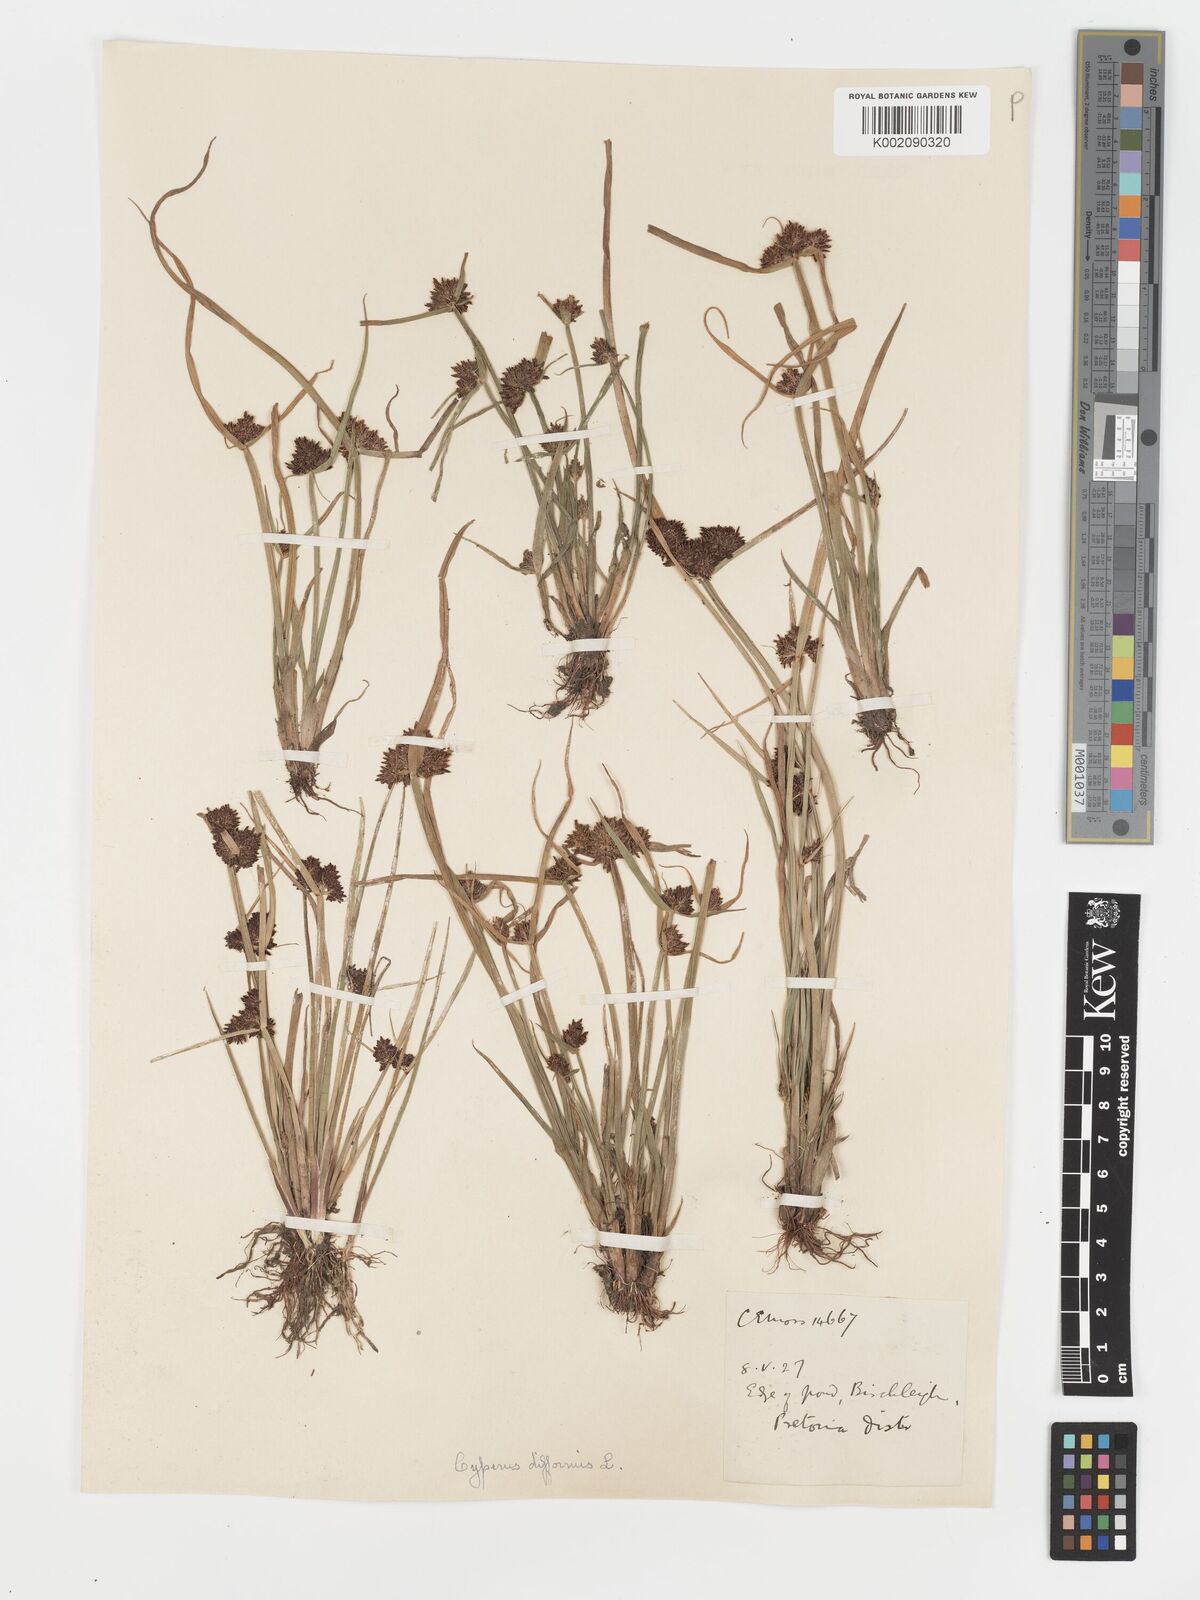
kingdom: Plantae
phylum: Tracheophyta
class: Liliopsida
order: Poales
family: Cyperaceae
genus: Cyperus
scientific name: Cyperus difformis
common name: Variable flatsedge
